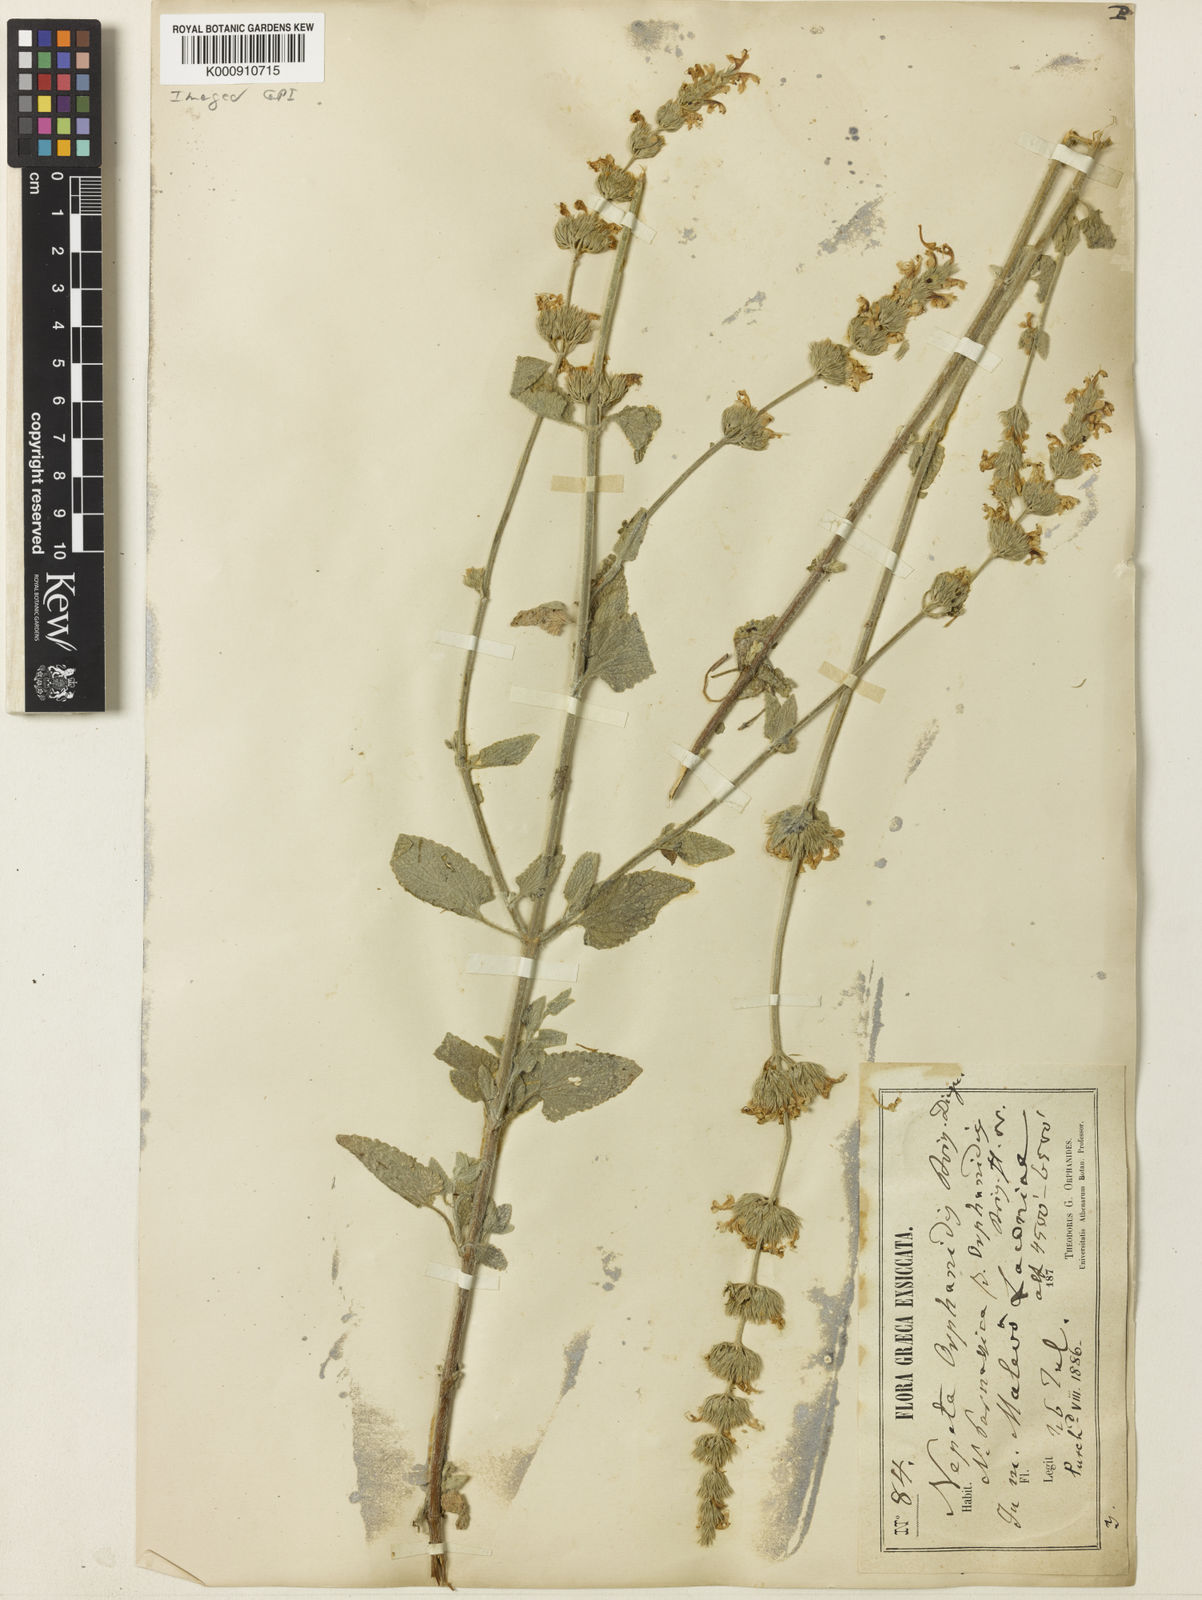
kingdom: Plantae
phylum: Tracheophyta
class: Magnoliopsida
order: Lamiales
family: Lamiaceae
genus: Nepeta
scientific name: Nepeta orphanidea
